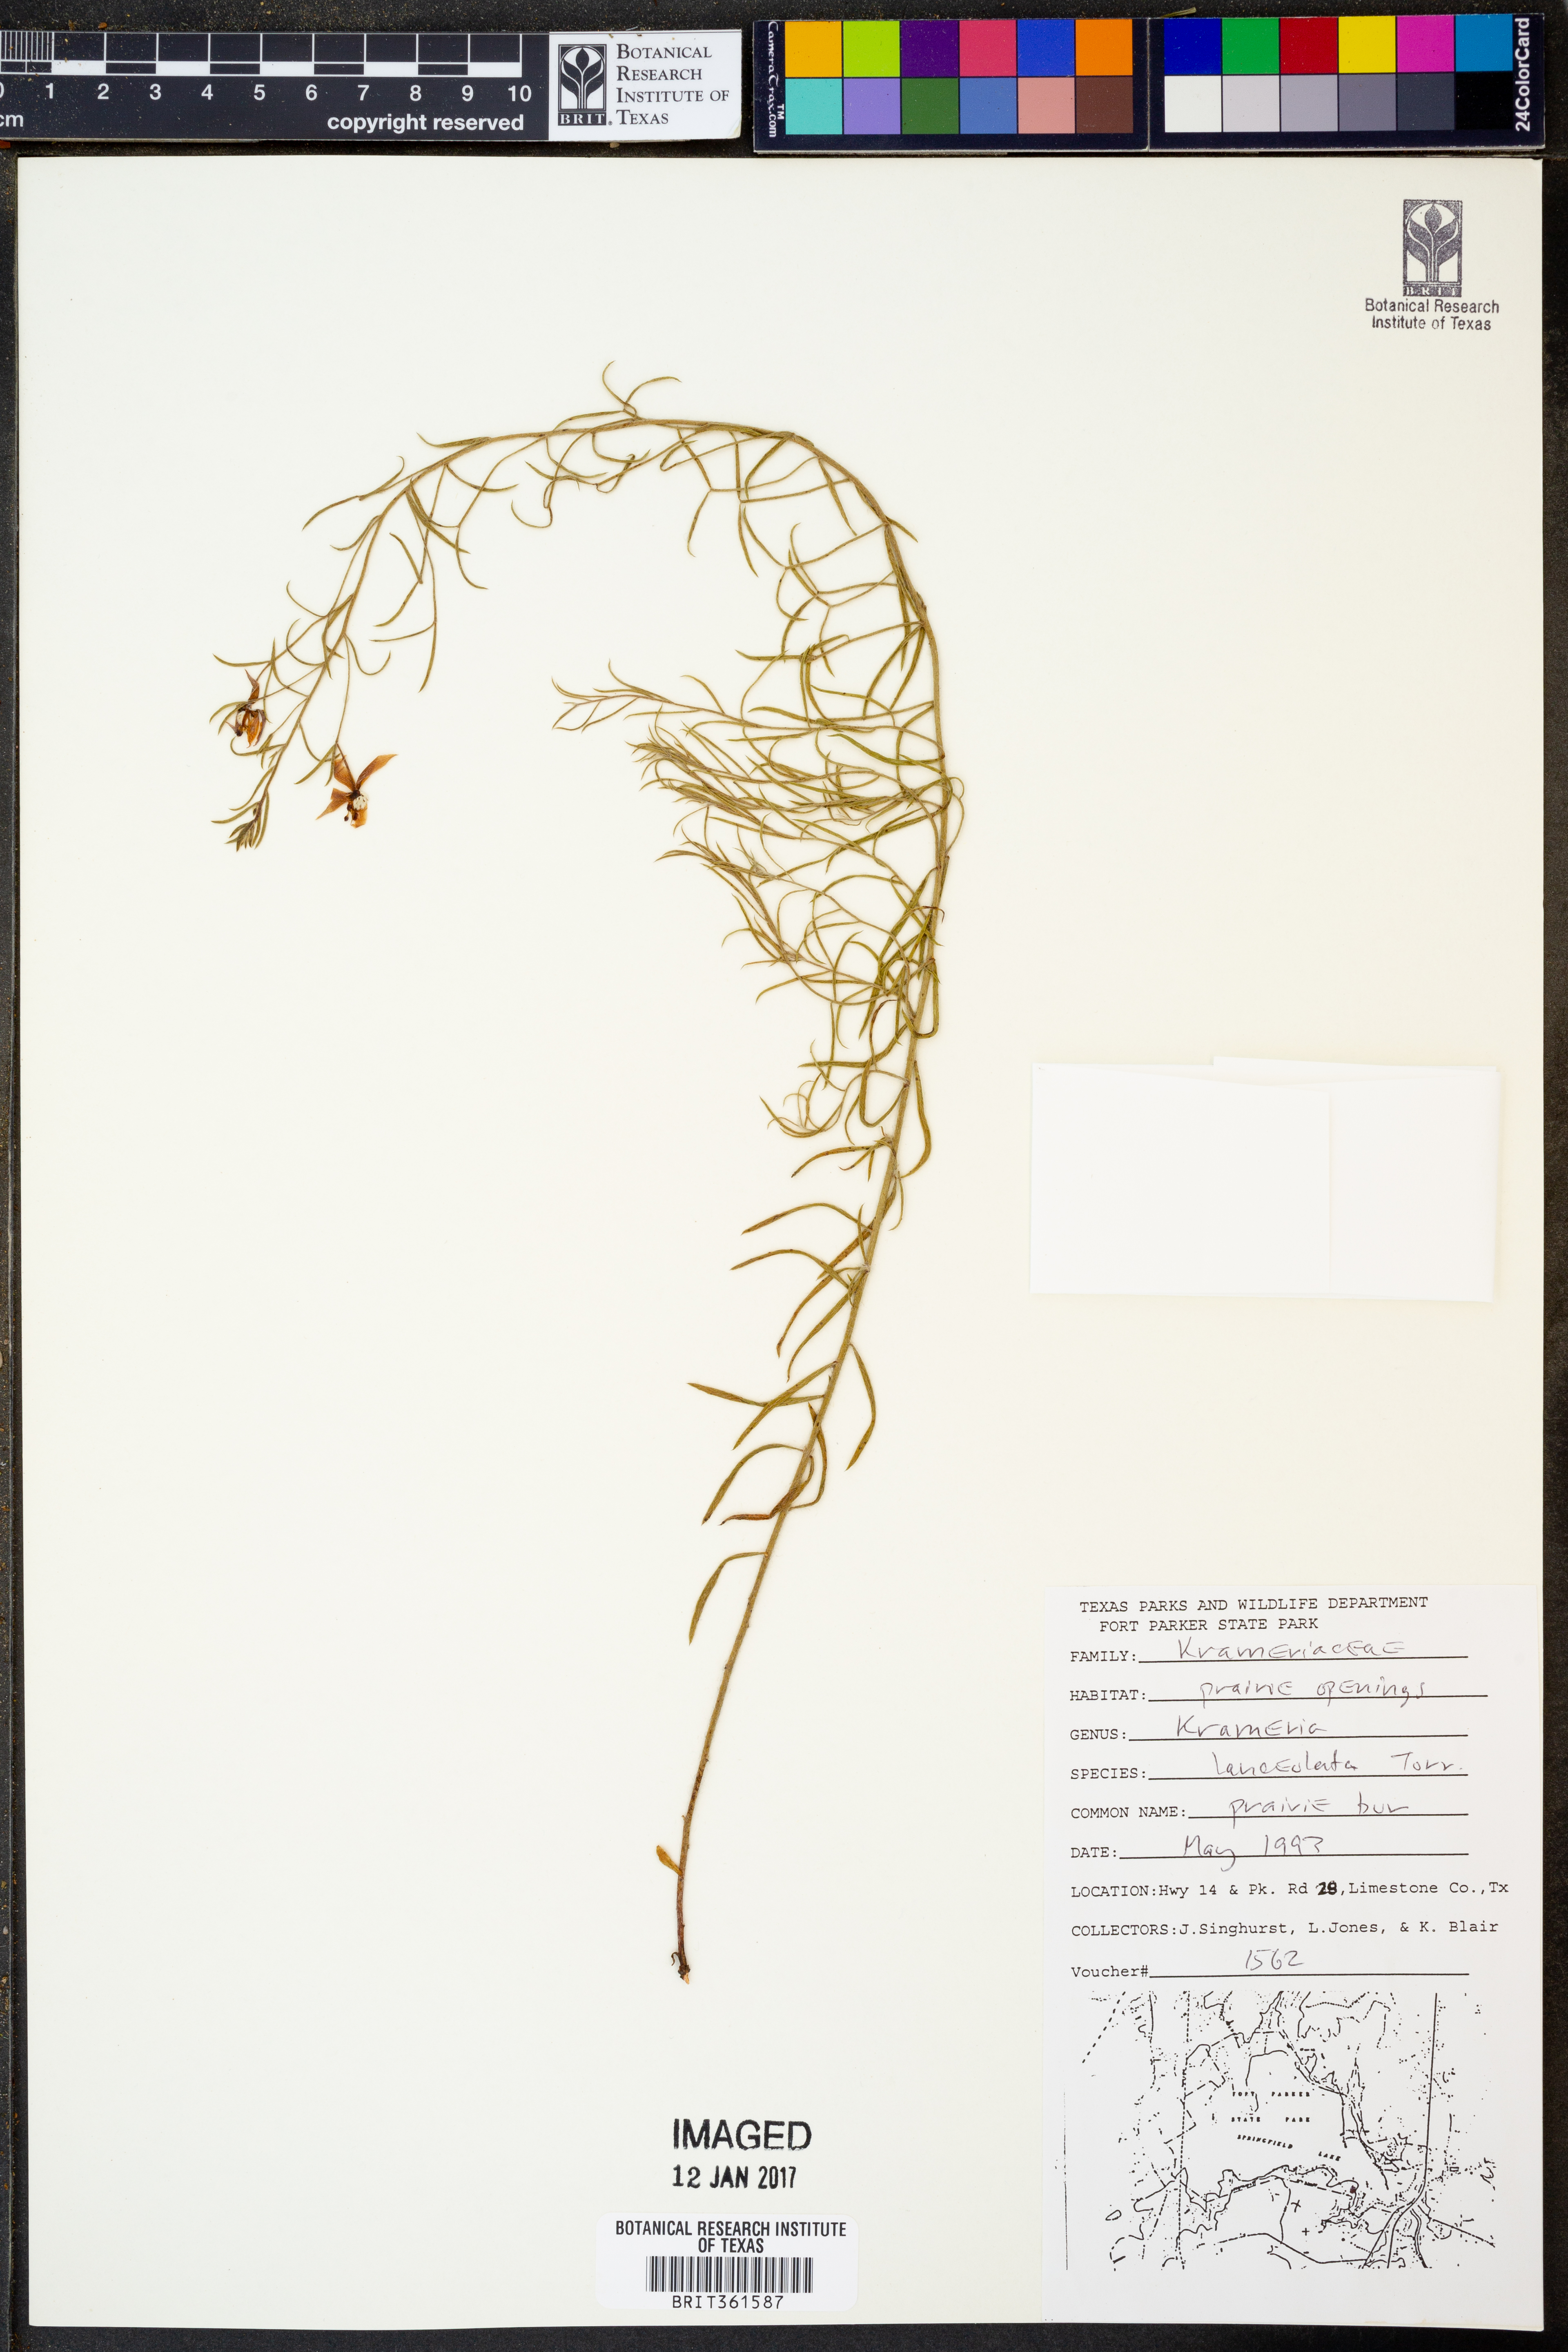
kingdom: Plantae
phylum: Tracheophyta
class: Magnoliopsida
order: Zygophyllales
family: Krameriaceae
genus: Krameria
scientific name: Krameria lanceolata
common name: Ratany
